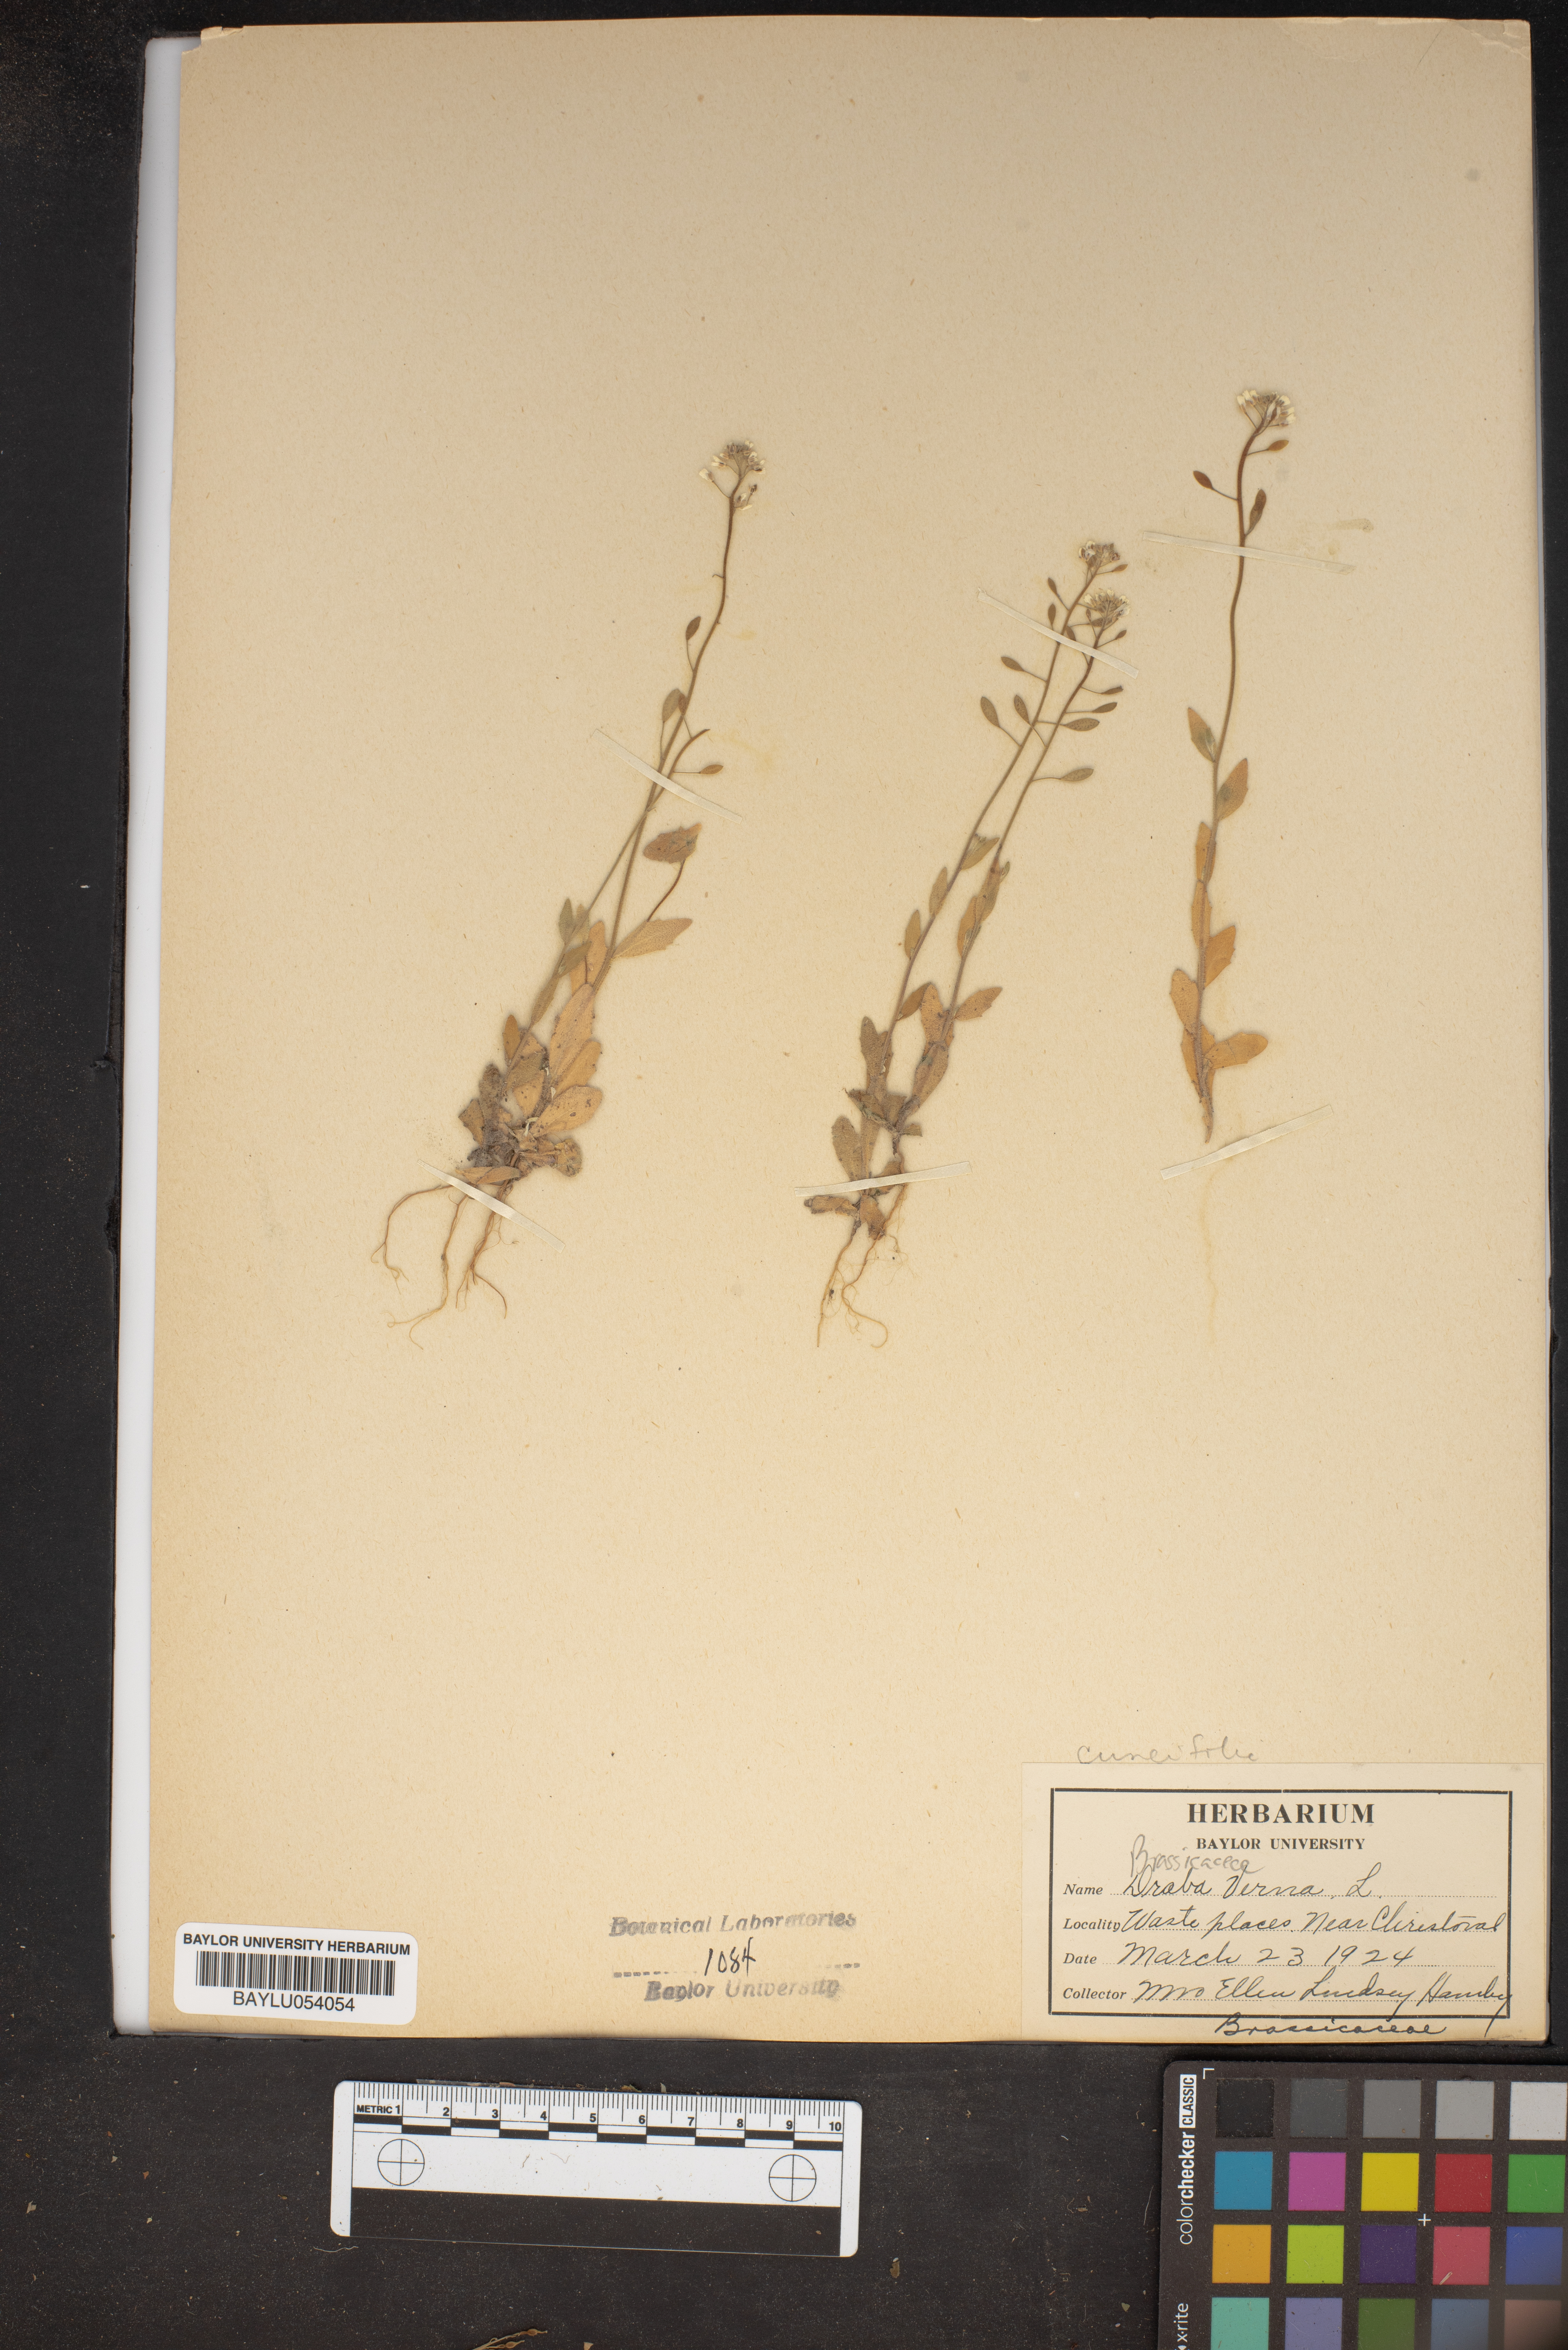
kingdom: Plantae
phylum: Tracheophyta
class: Magnoliopsida
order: Brassicales
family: Brassicaceae
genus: Draba
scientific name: Draba verna
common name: Spring draba
